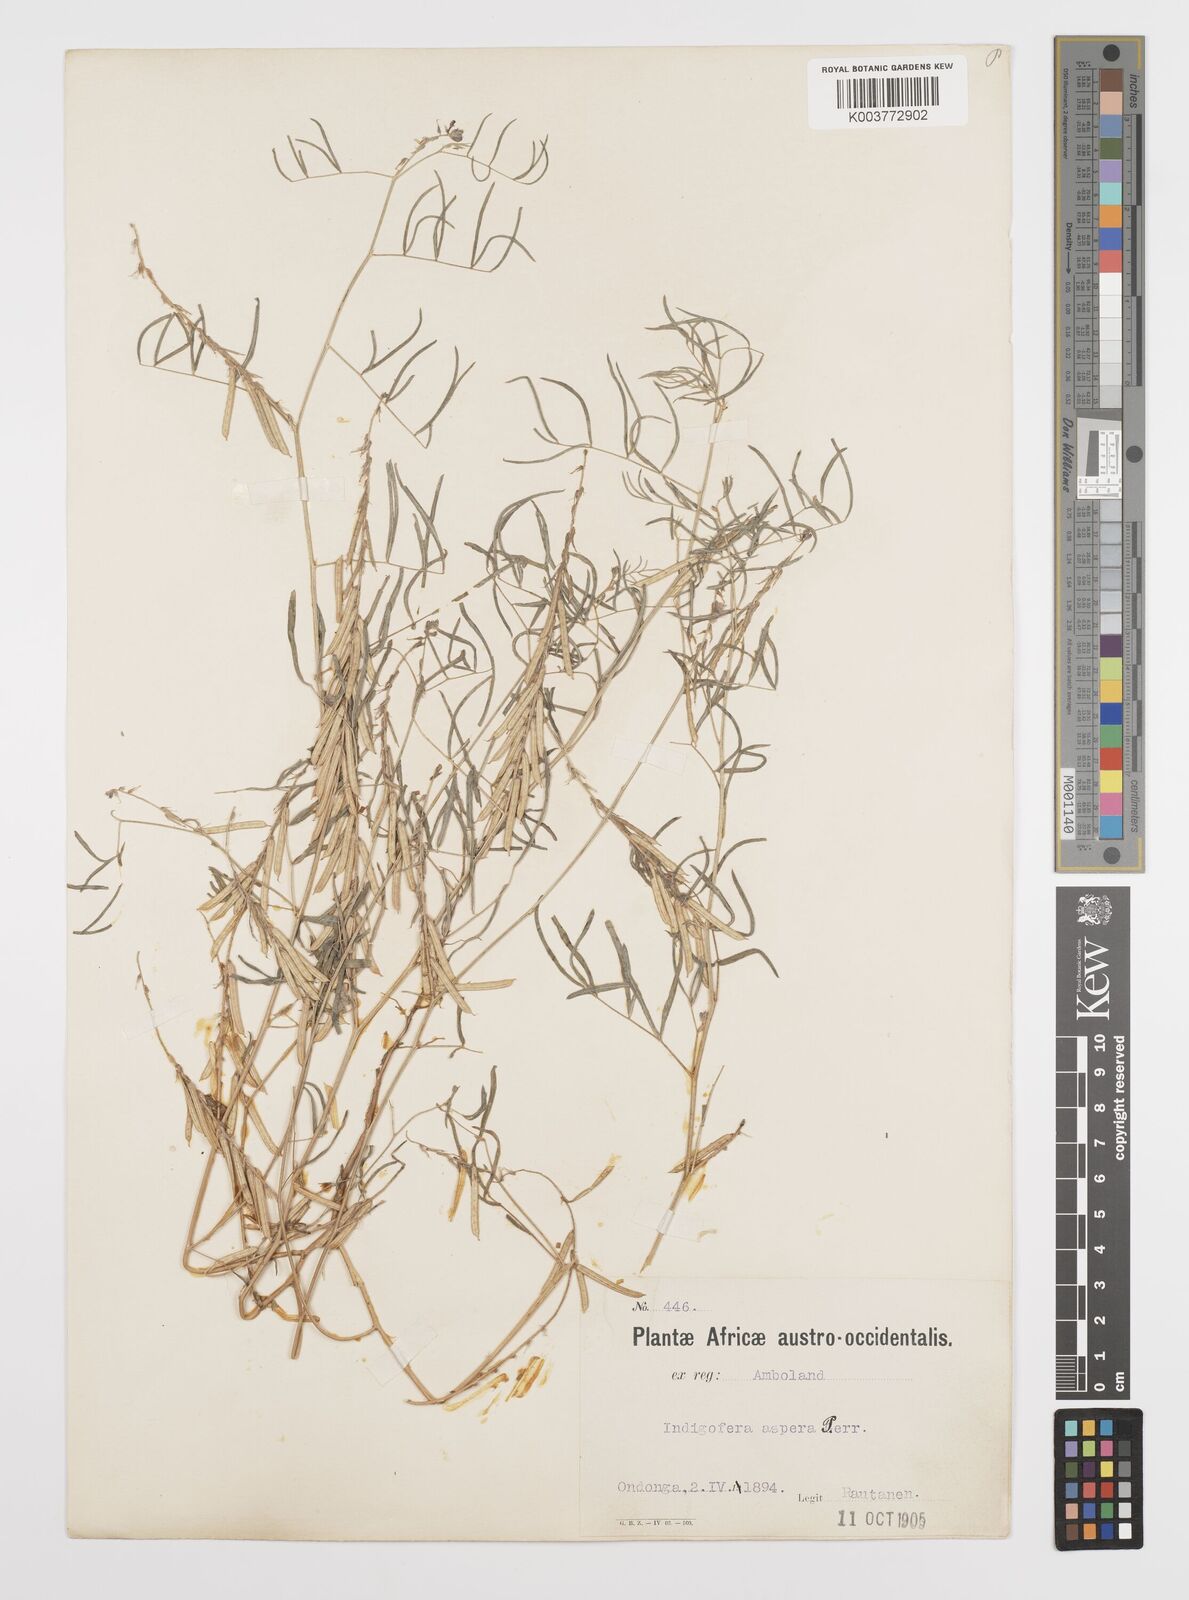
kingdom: Plantae
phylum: Tracheophyta
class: Magnoliopsida
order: Fabales
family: Fabaceae
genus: Indigofera
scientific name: Indigofera charlieriana
